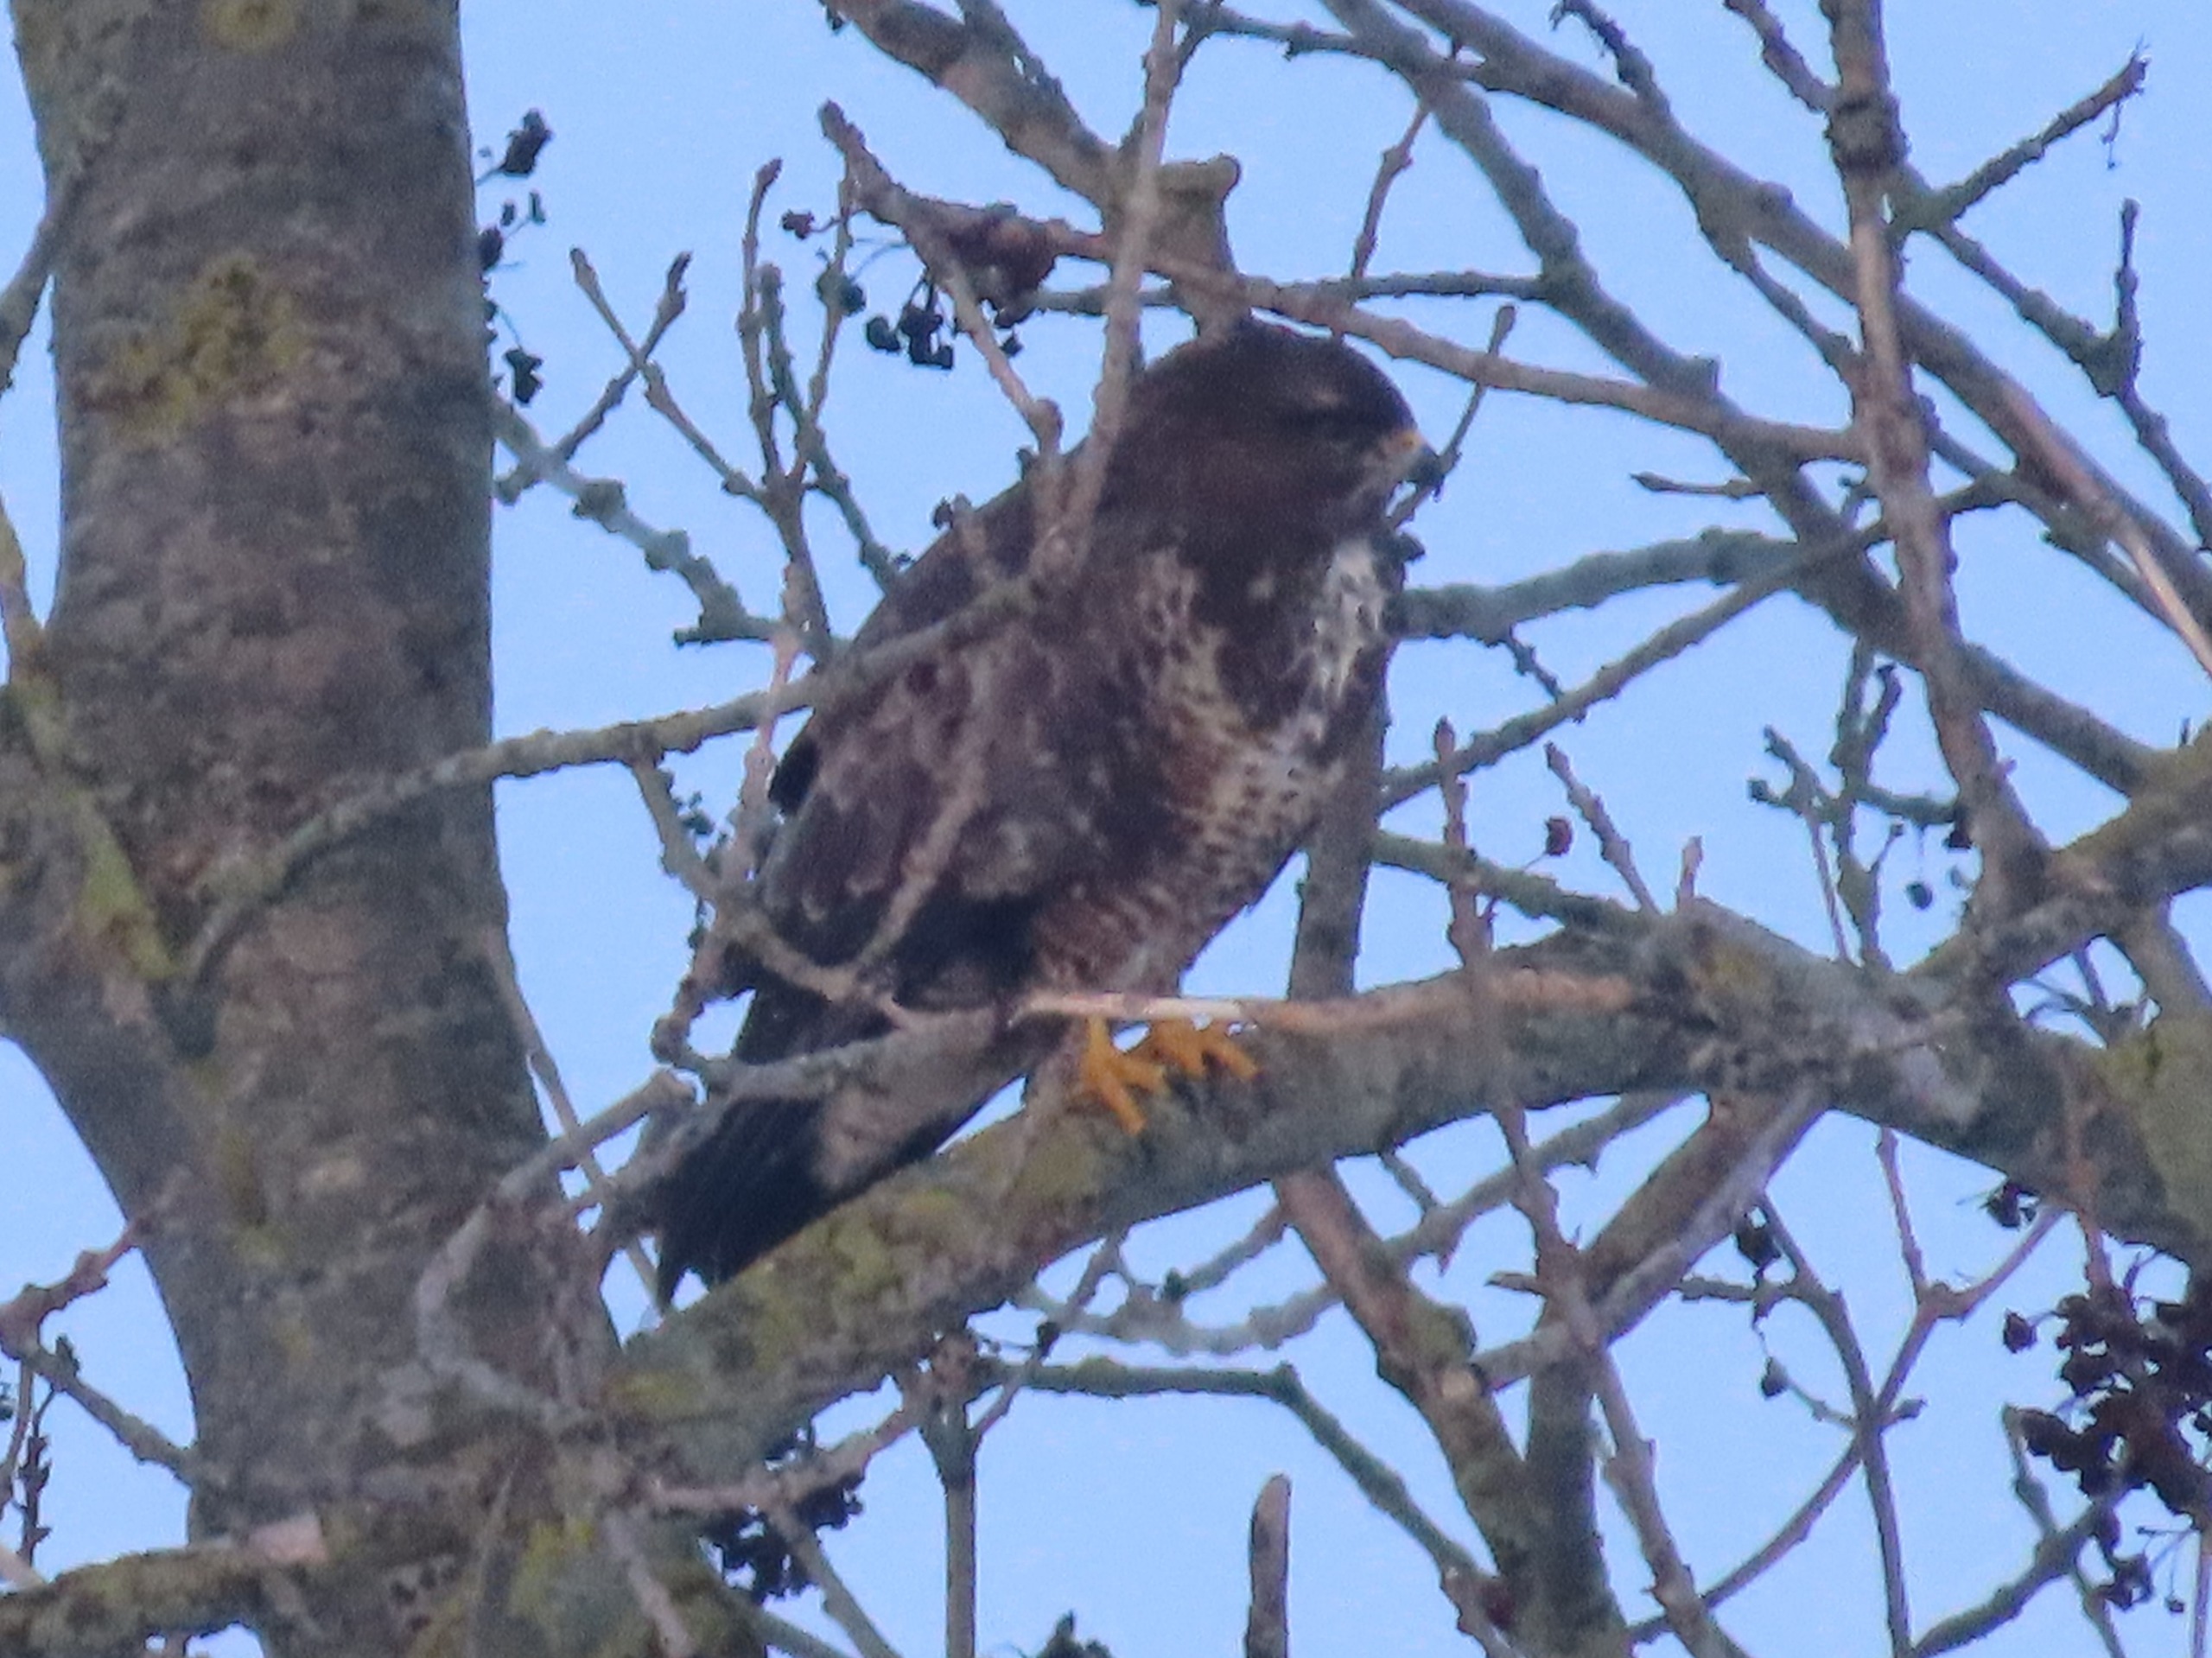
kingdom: Animalia
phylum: Chordata
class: Aves
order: Accipitriformes
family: Accipitridae
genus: Buteo
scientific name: Buteo buteo
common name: Musvåge
